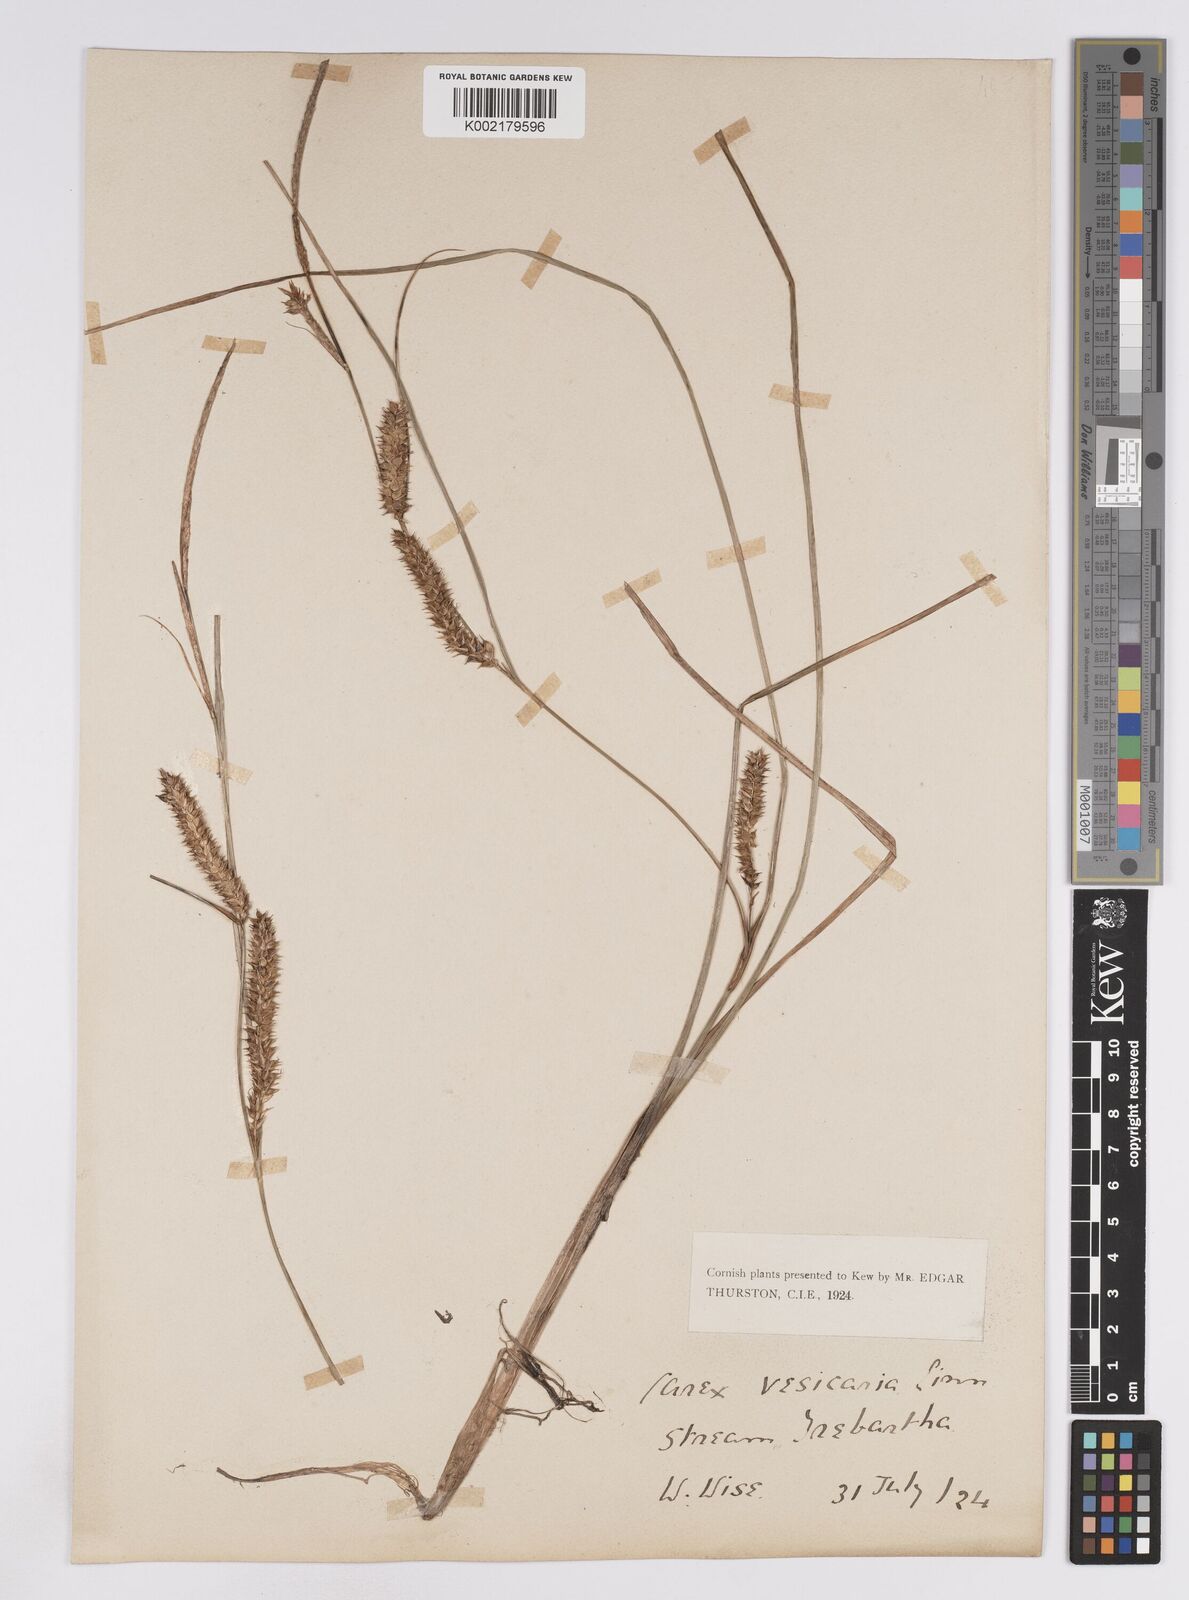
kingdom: Plantae
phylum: Tracheophyta
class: Liliopsida
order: Poales
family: Cyperaceae
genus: Carex
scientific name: Carex rostrata
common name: Bottle sedge
